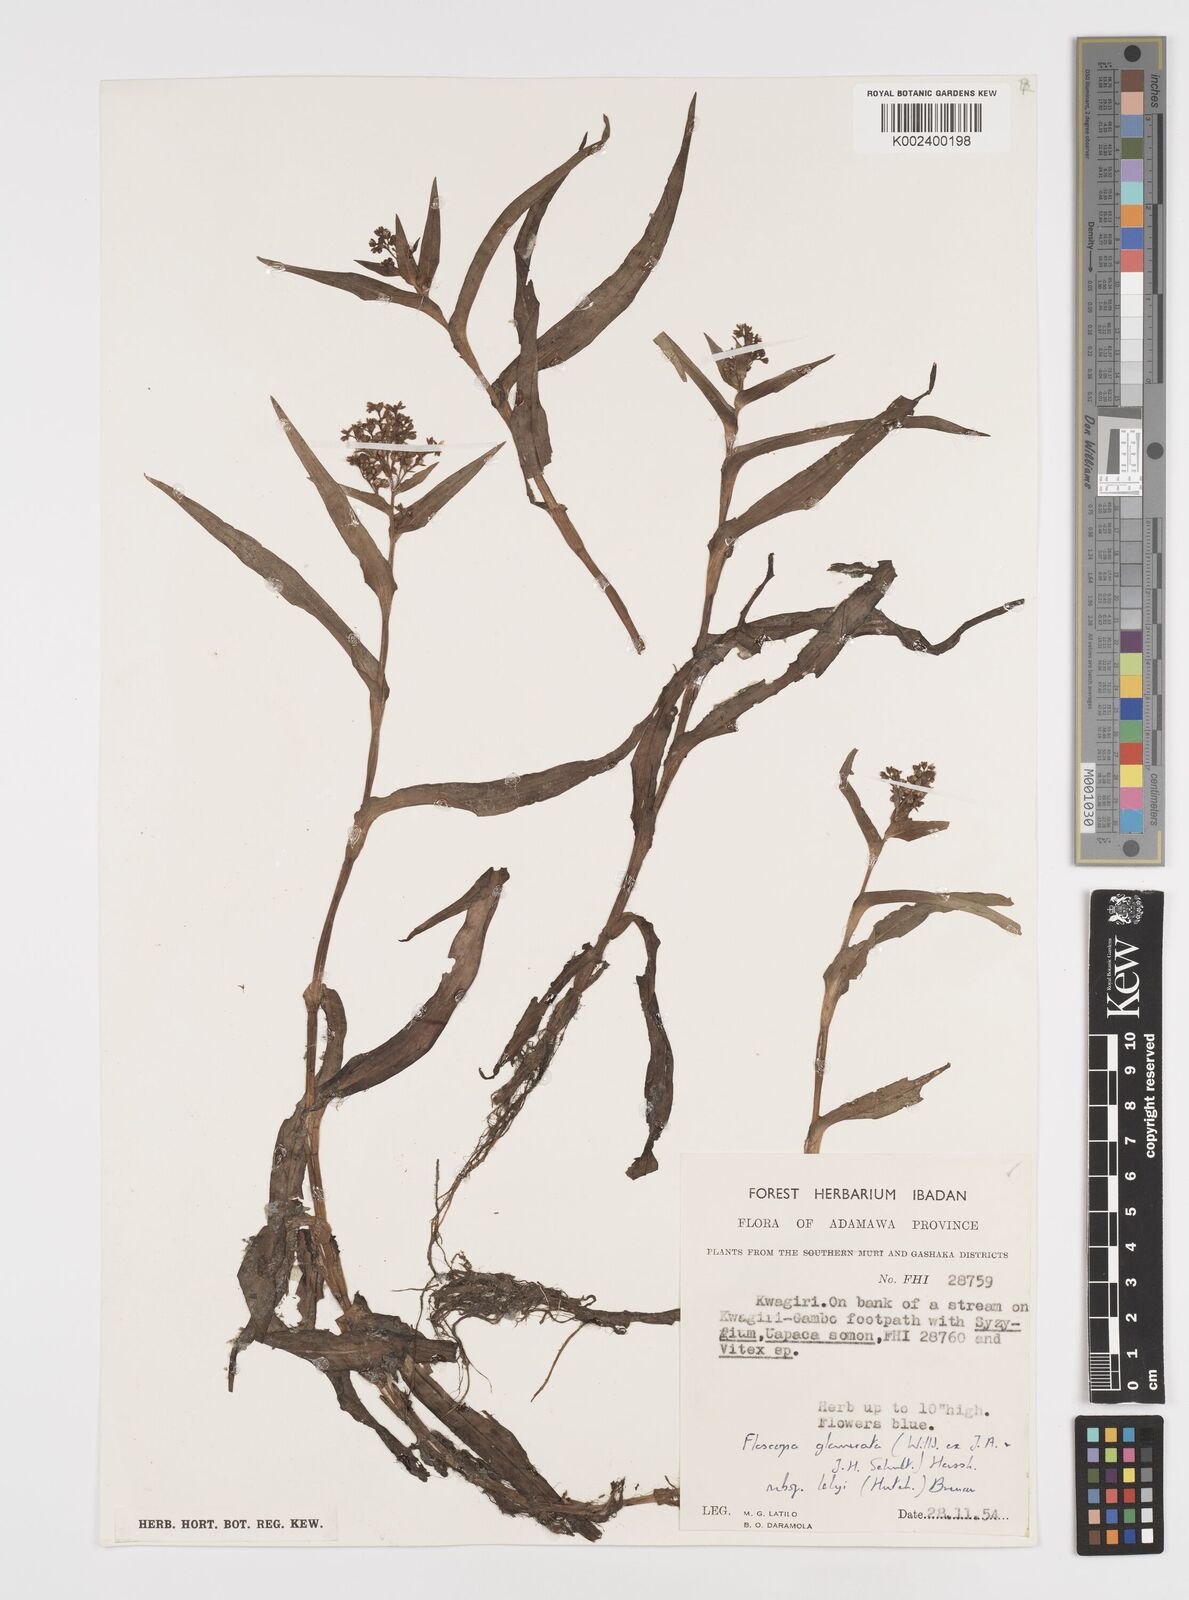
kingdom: Plantae
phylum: Tracheophyta
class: Liliopsida
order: Commelinales
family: Commelinaceae
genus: Floscopa
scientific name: Floscopa glomerata
